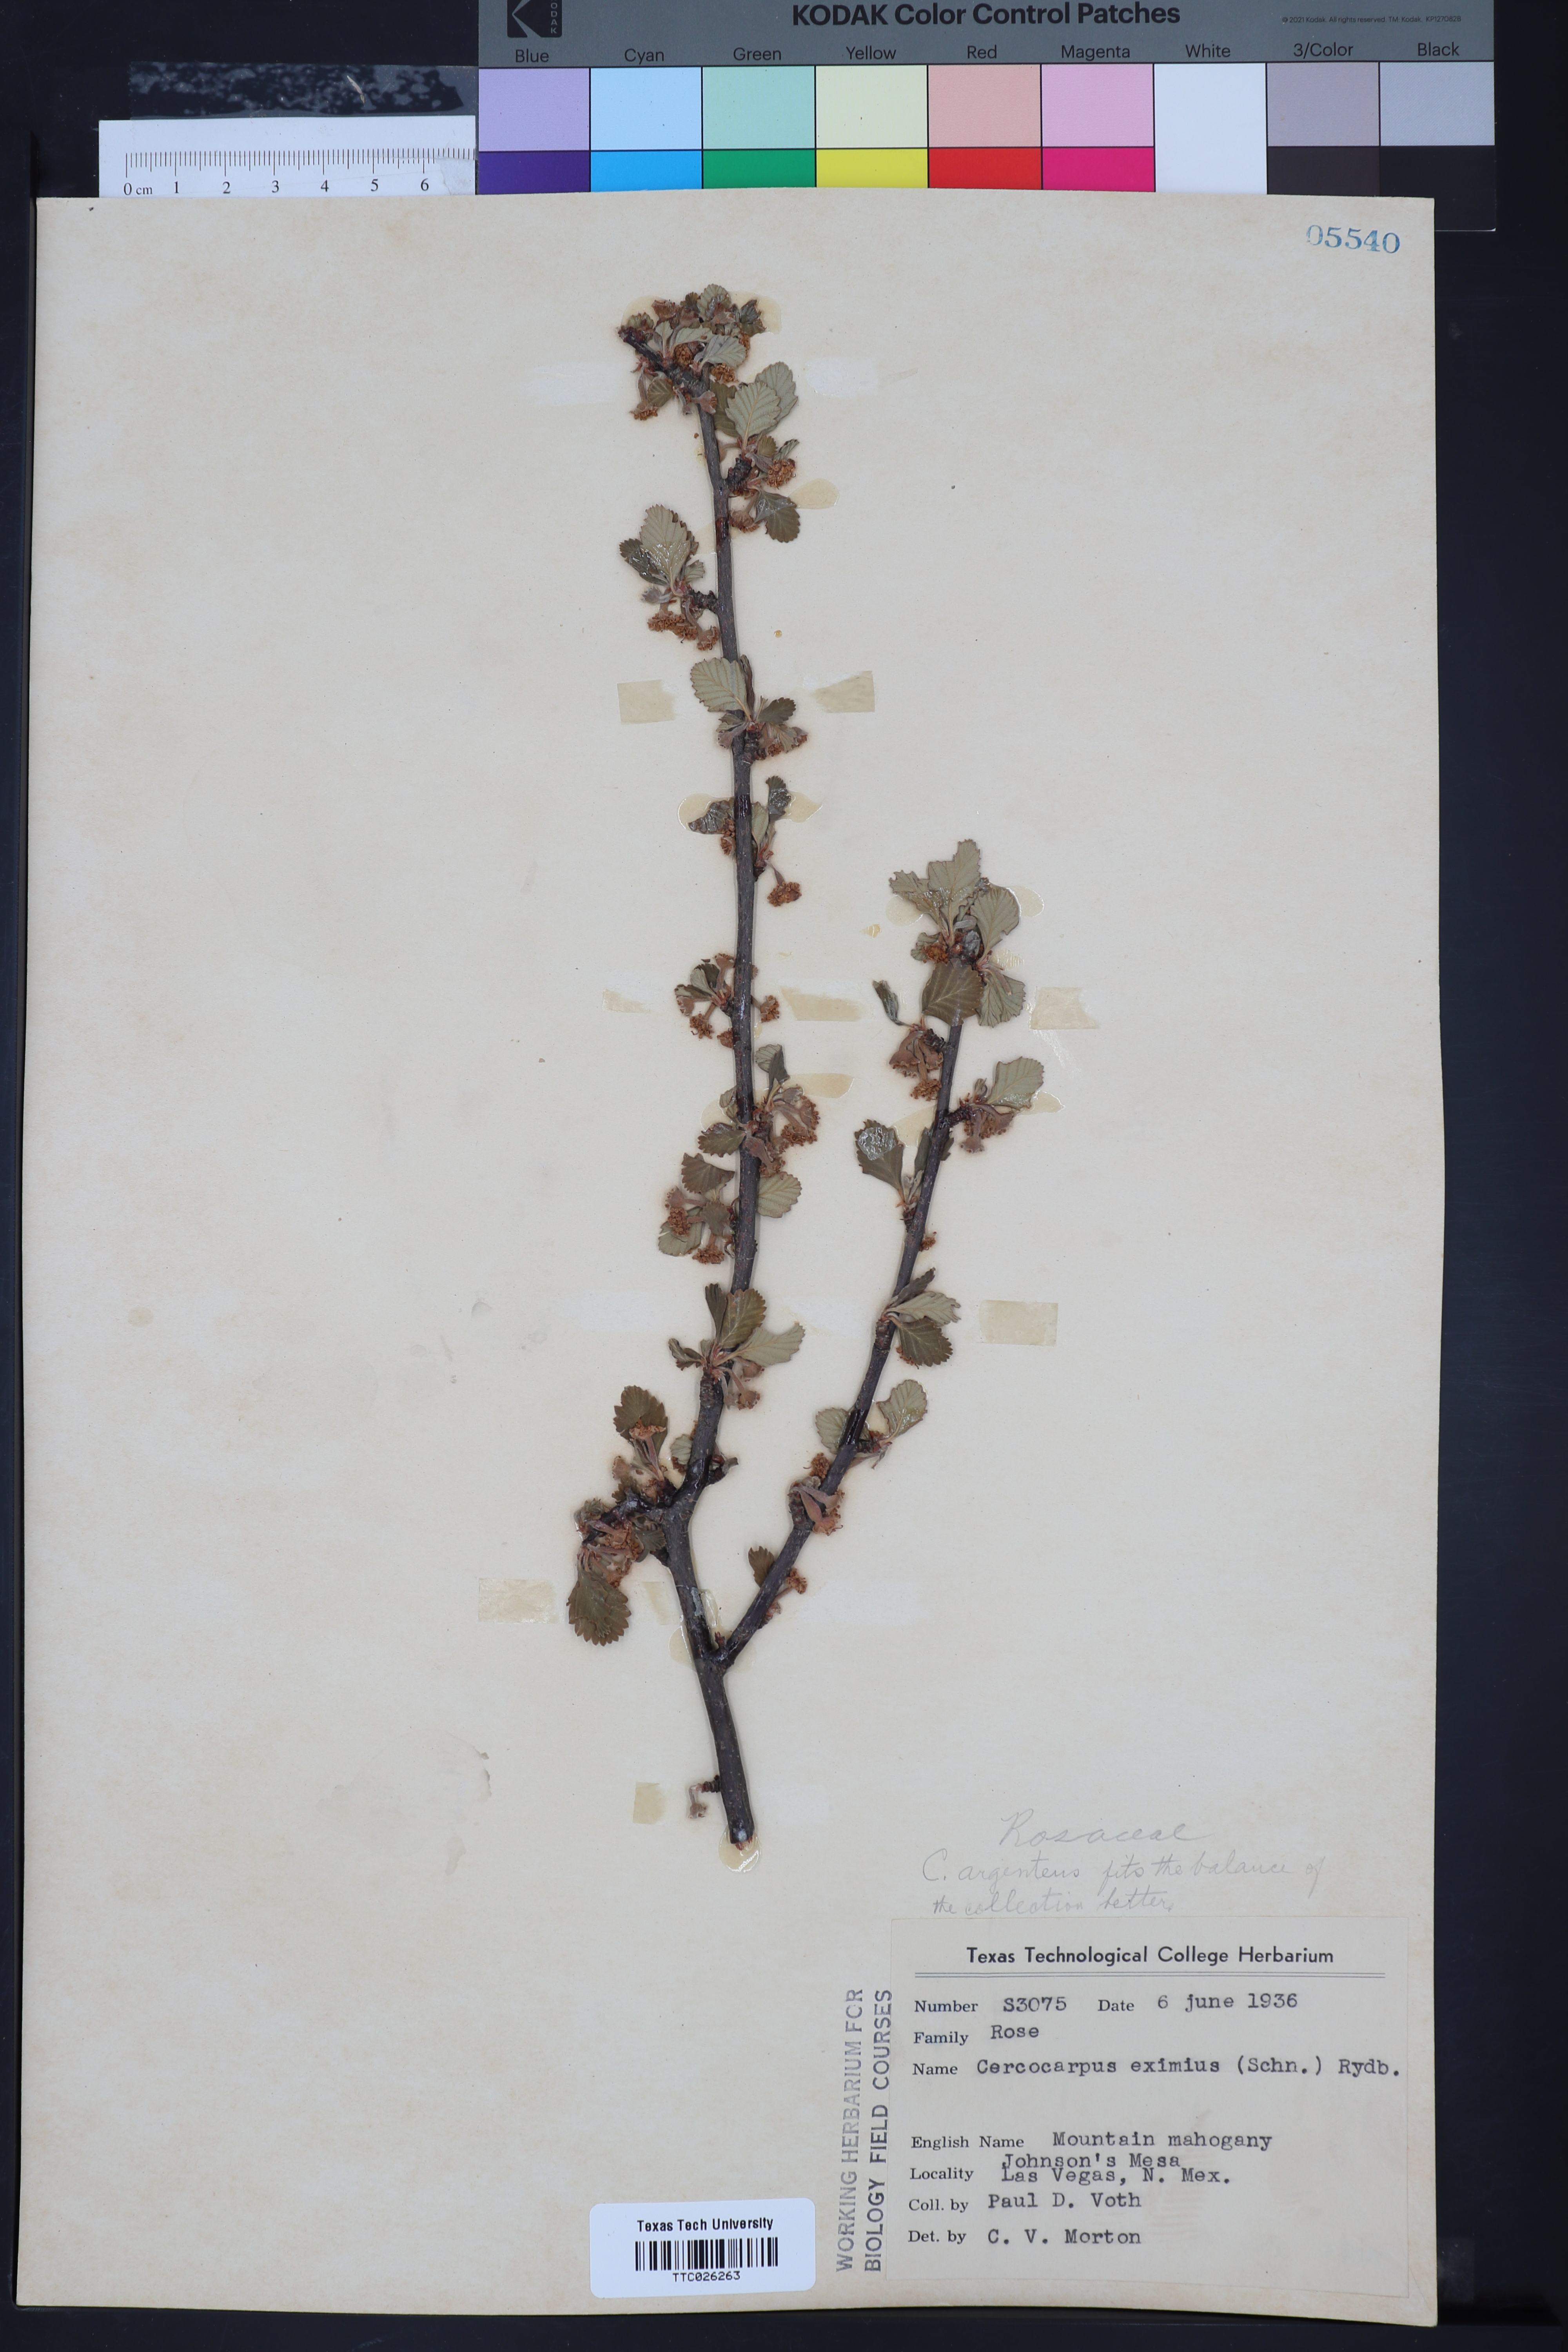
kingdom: Plantae
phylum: Tracheophyta
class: Magnoliopsida
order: Rosales
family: Rosaceae
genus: Cercocarpus
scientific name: Cercocarpus breviflorus
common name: Wright's mountain-mahogany
